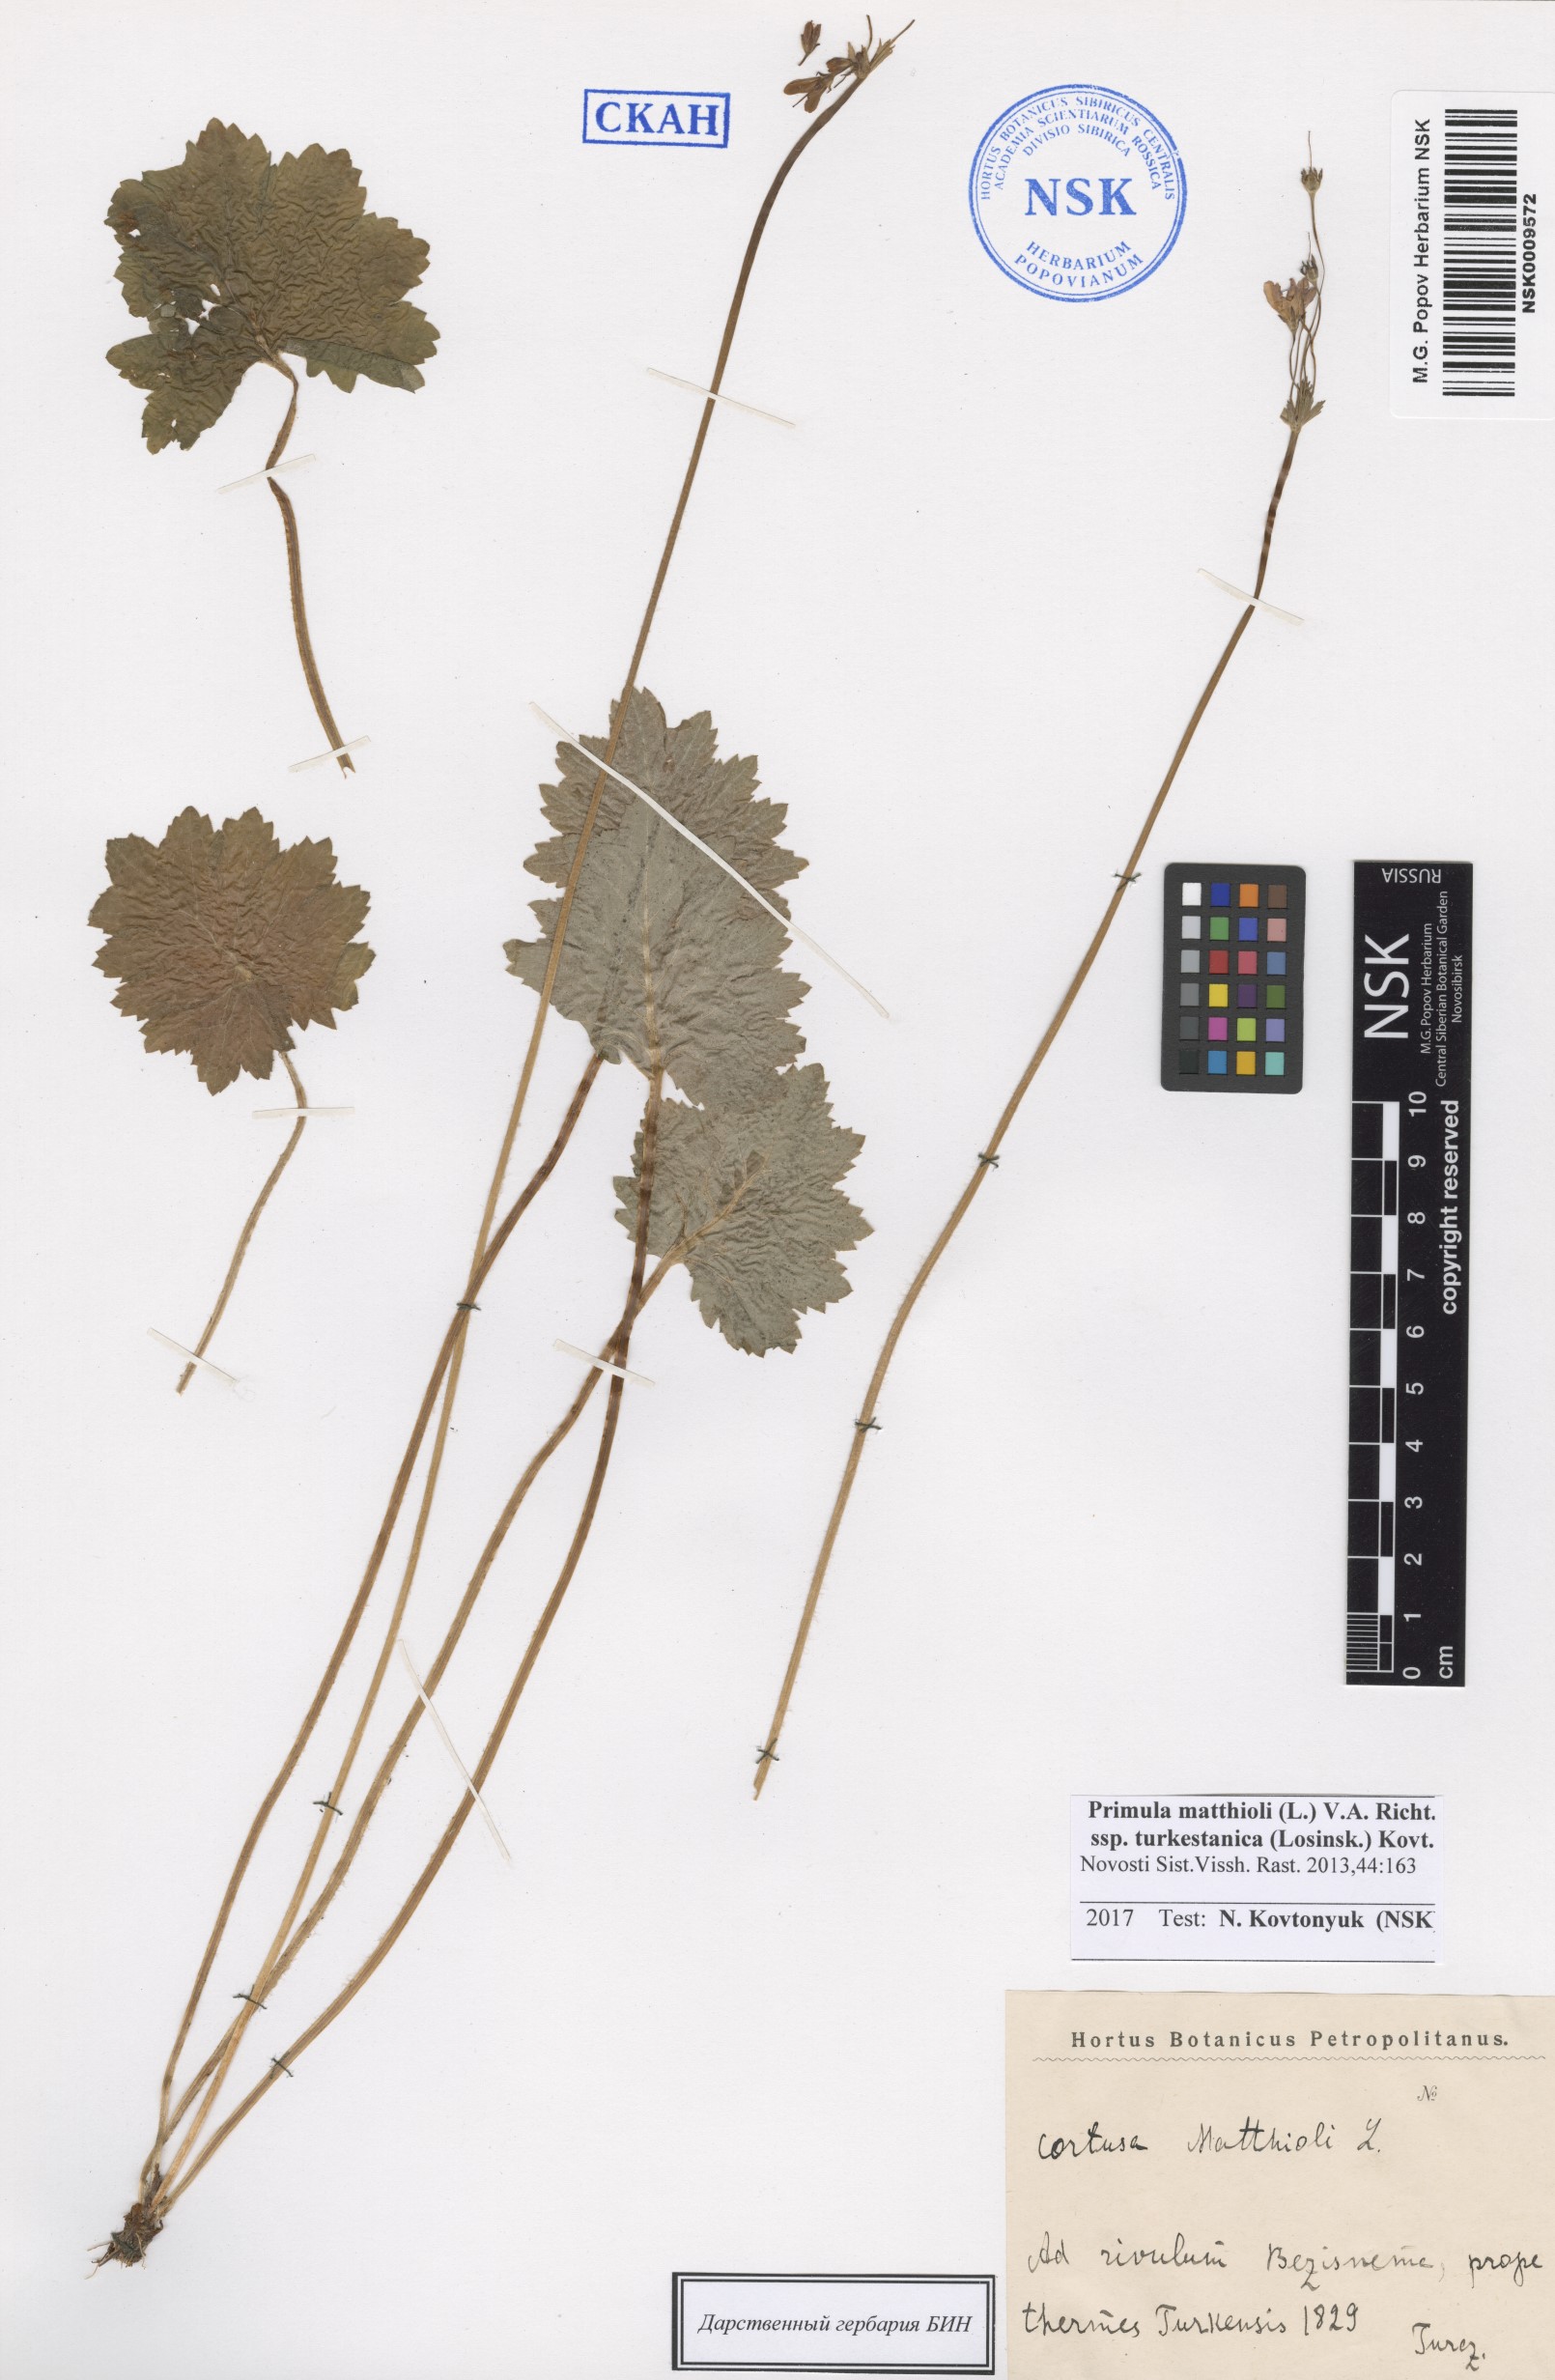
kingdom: Plantae
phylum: Tracheophyta
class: Magnoliopsida
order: Ericales
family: Primulaceae
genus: Primula
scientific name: Primula matthioli
